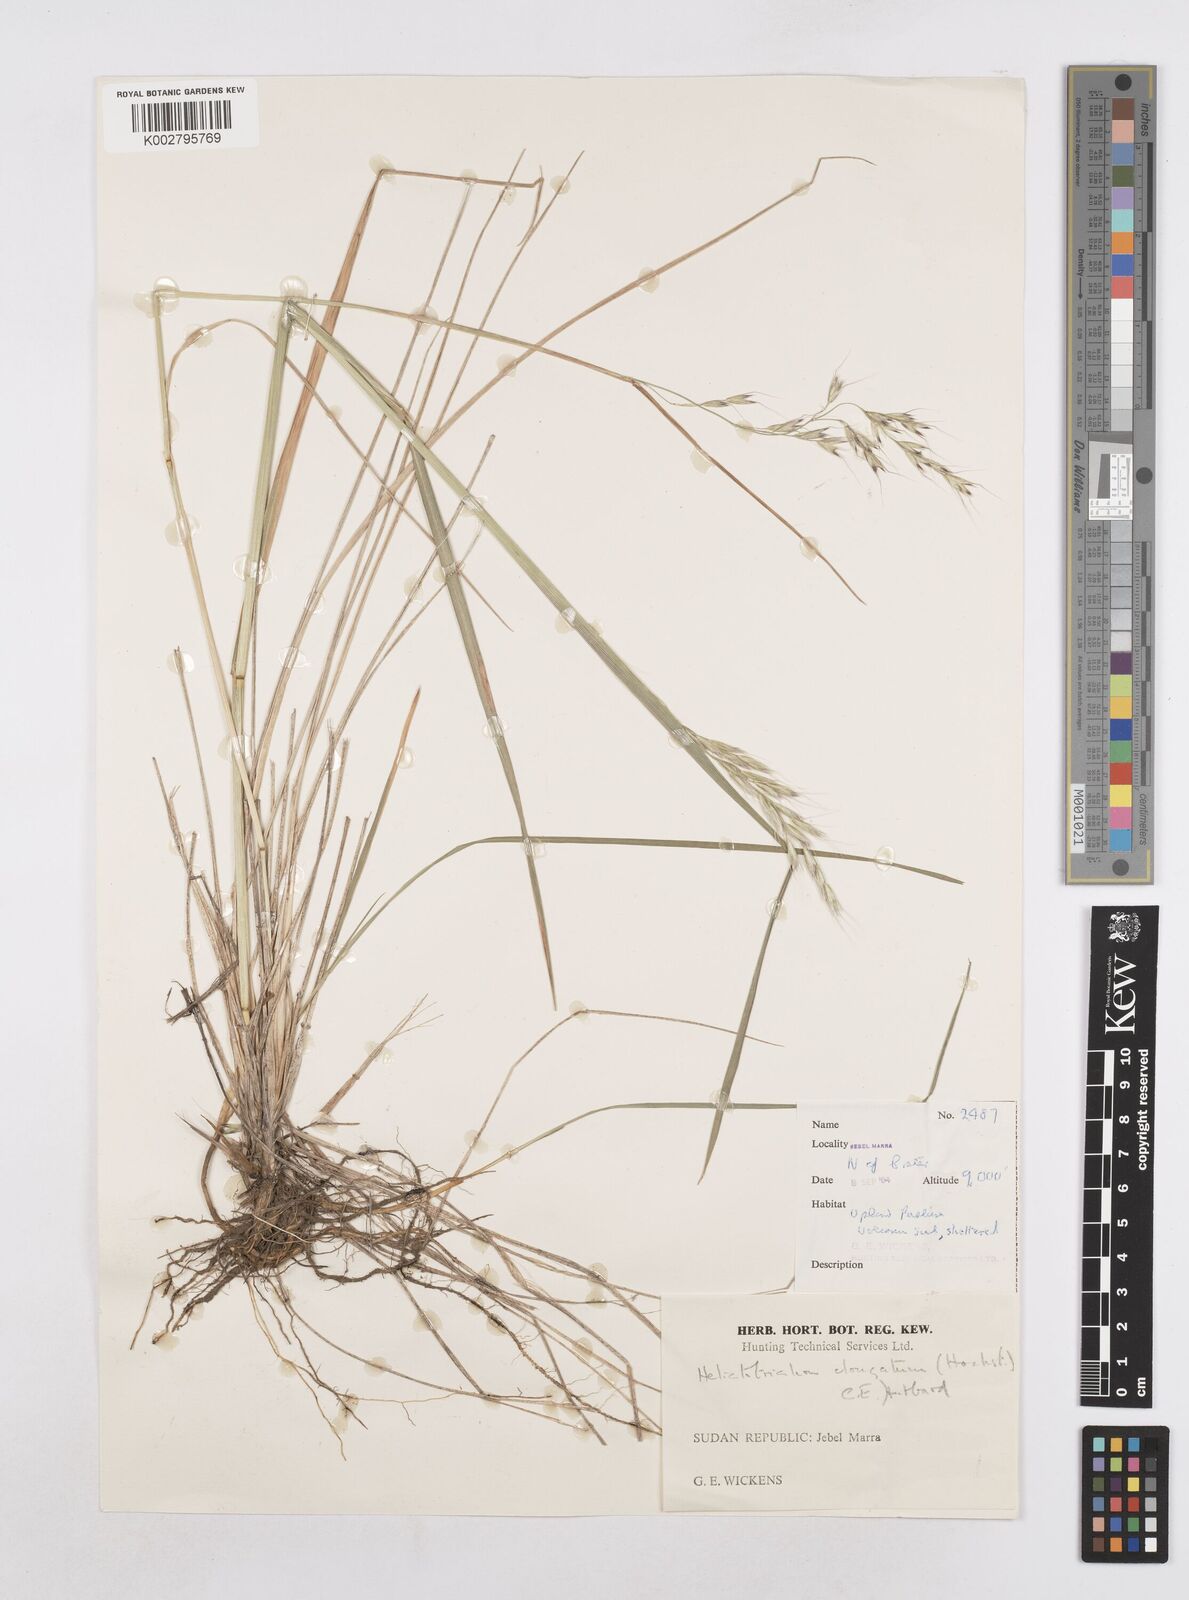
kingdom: Plantae
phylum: Tracheophyta
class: Liliopsida
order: Poales
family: Poaceae
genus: Trisetopsis
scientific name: Trisetopsis elongata
